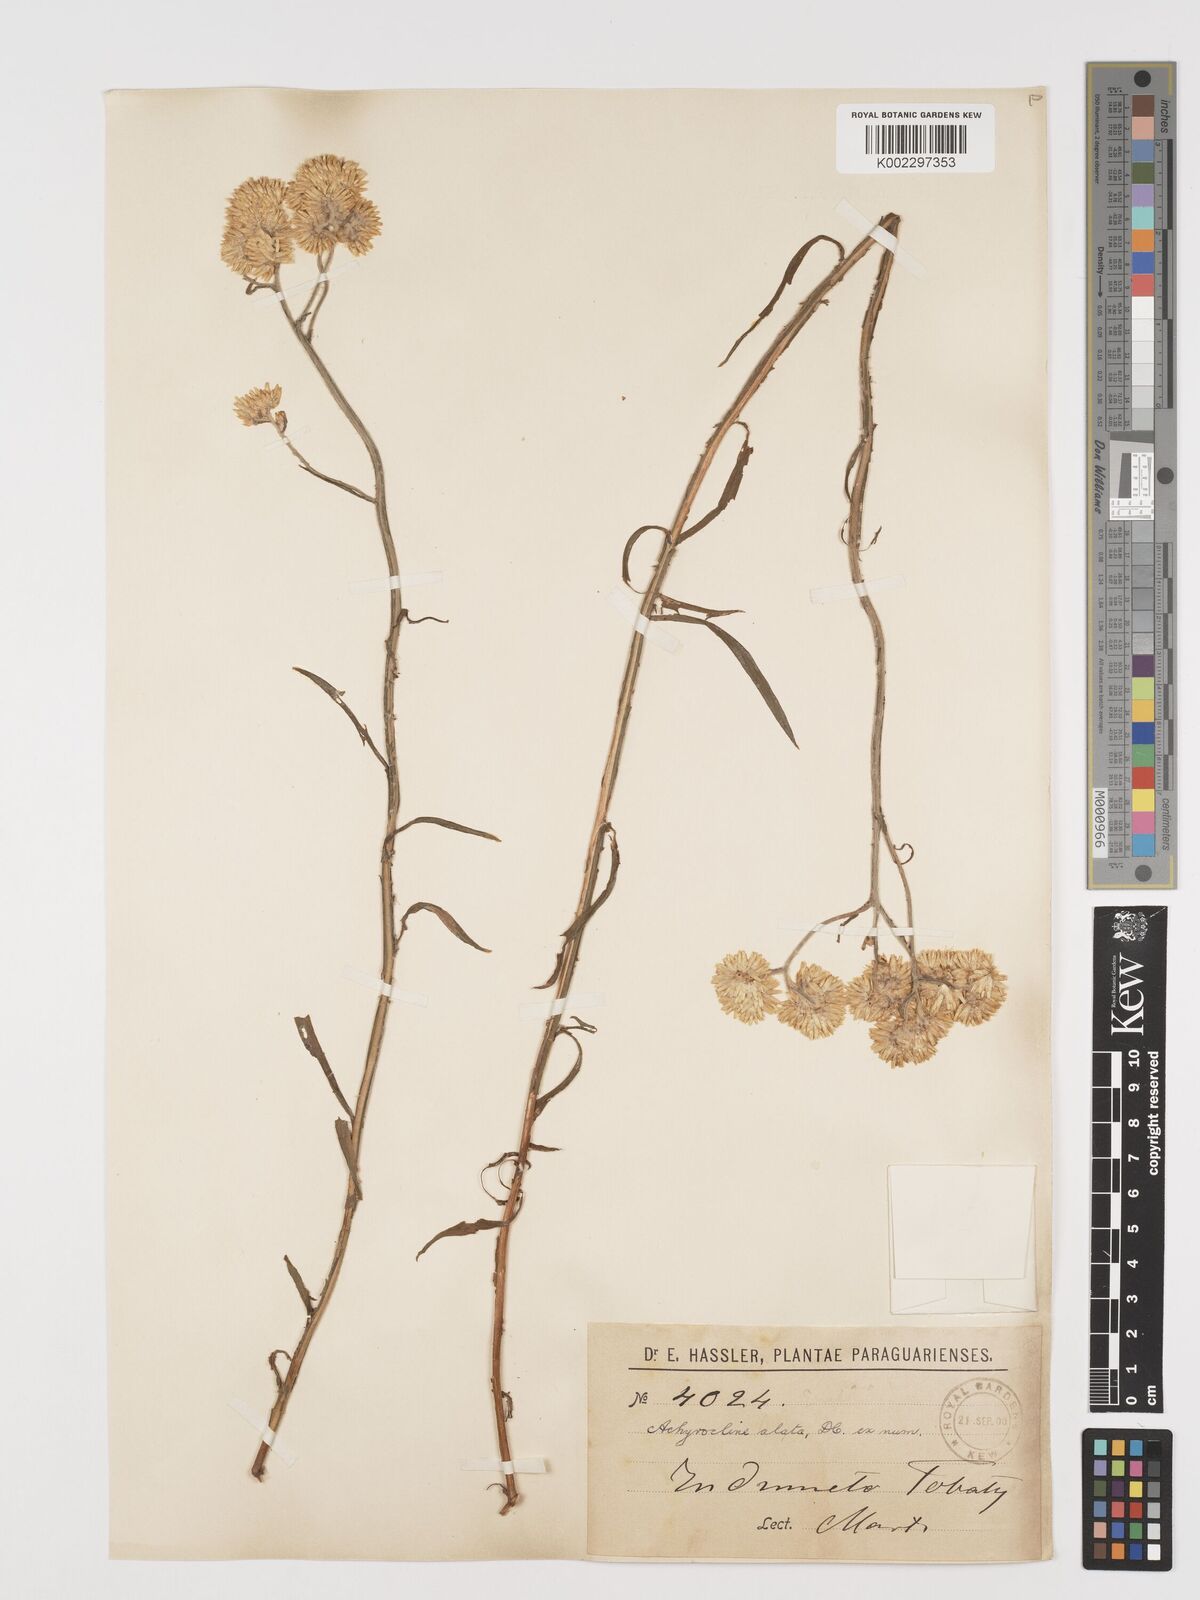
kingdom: Plantae
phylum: Tracheophyta
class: Magnoliopsida
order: Asterales
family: Asteraceae
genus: Achyrocline
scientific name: Achyrocline alata
